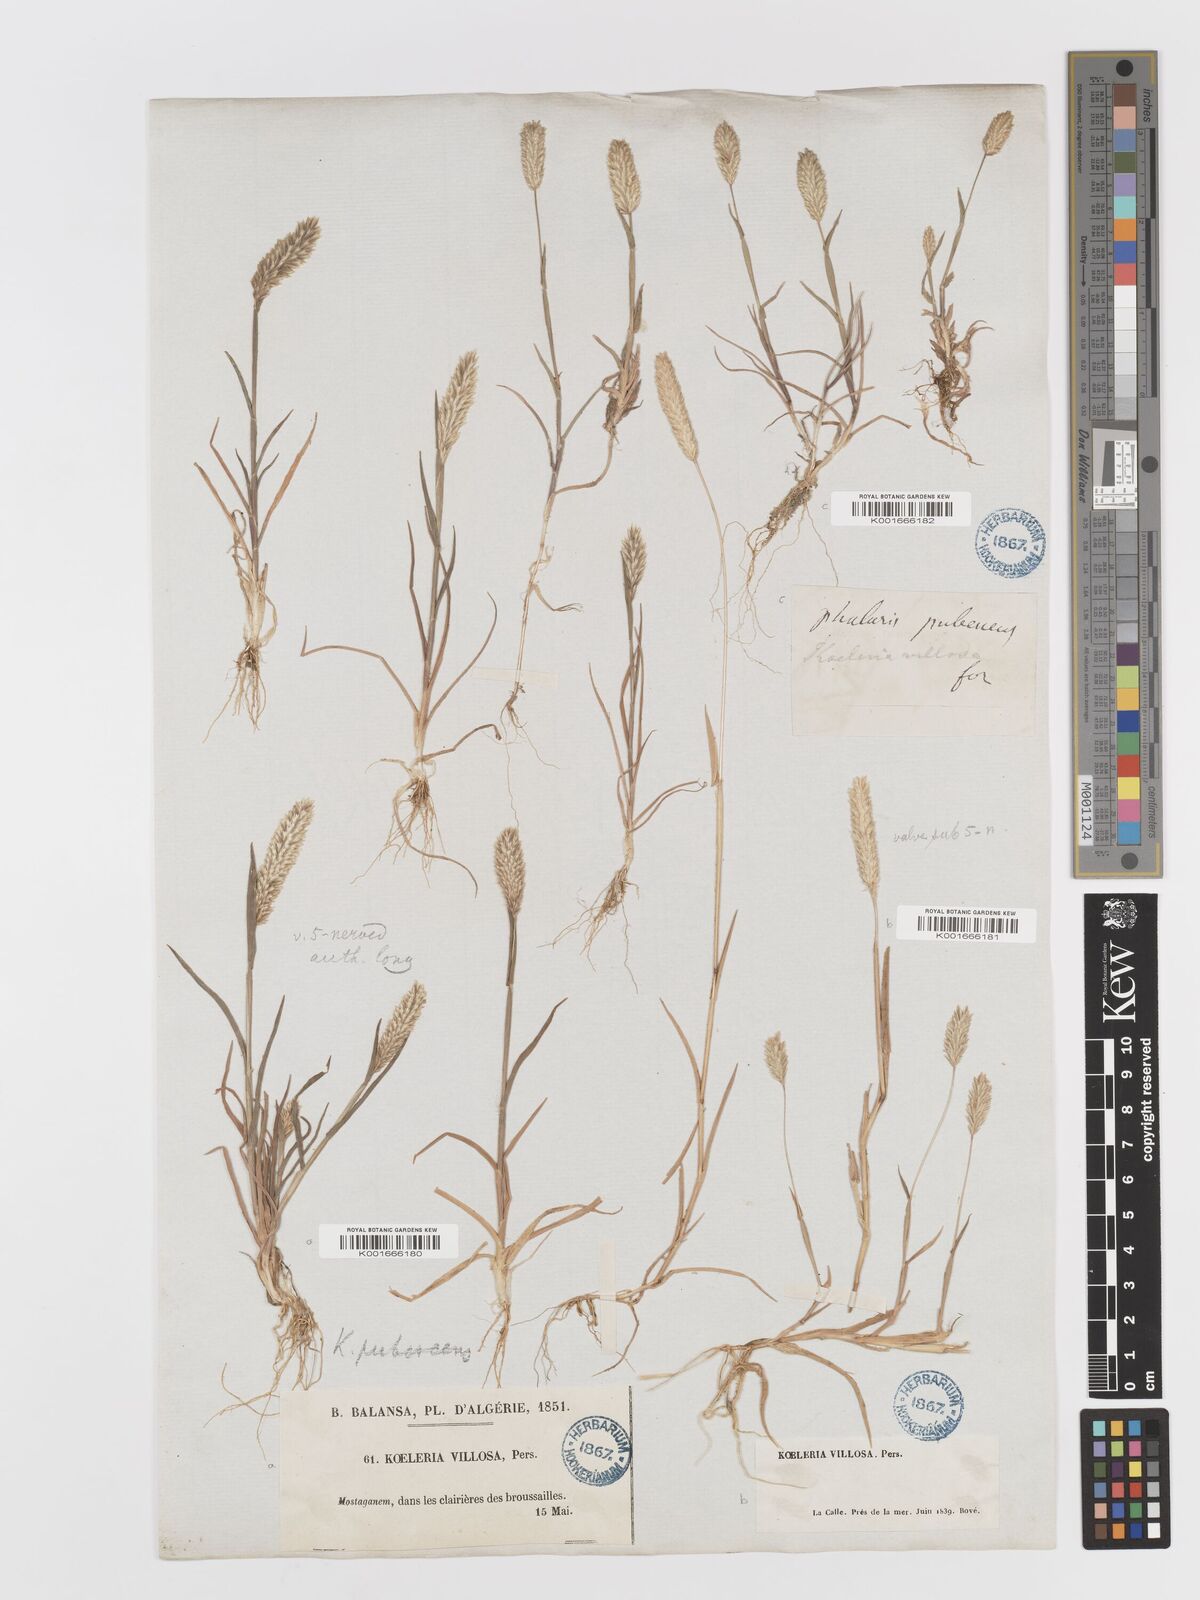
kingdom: Plantae
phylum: Tracheophyta
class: Liliopsida
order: Poales
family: Poaceae
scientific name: Poaceae
